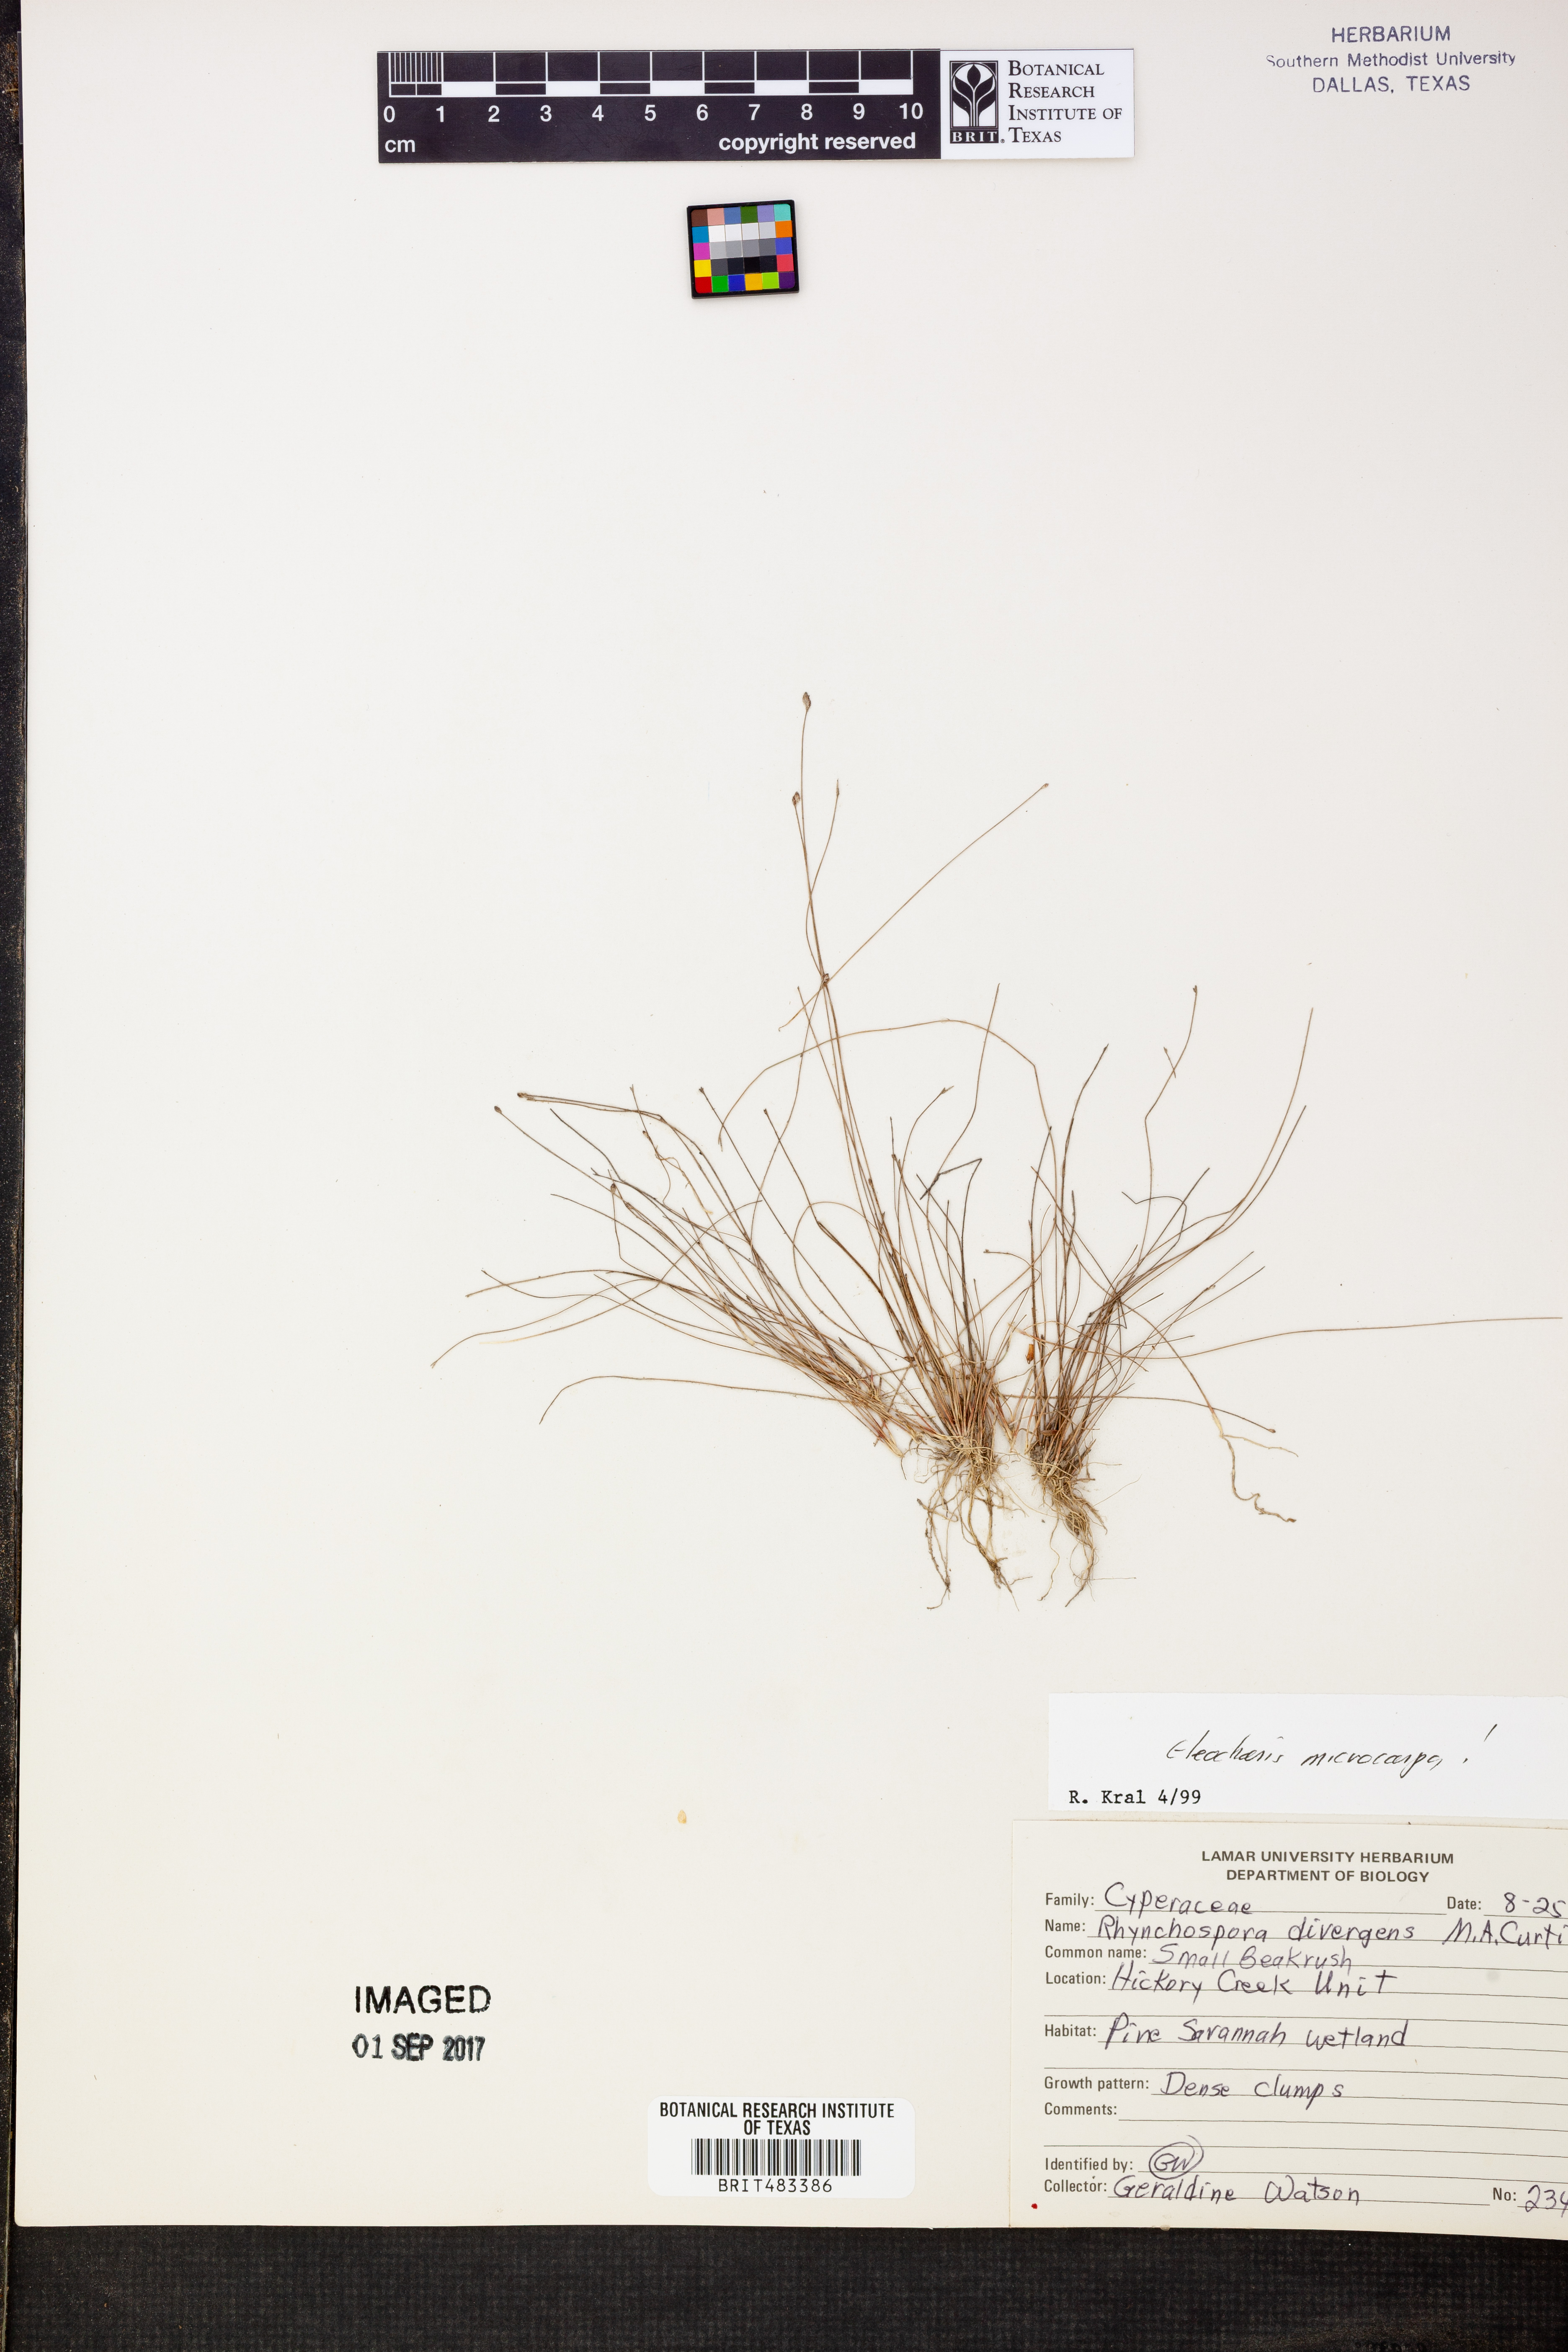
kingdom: Plantae
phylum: Tracheophyta
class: Liliopsida
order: Poales
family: Cyperaceae
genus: Eleocharis
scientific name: Eleocharis microcarpa
